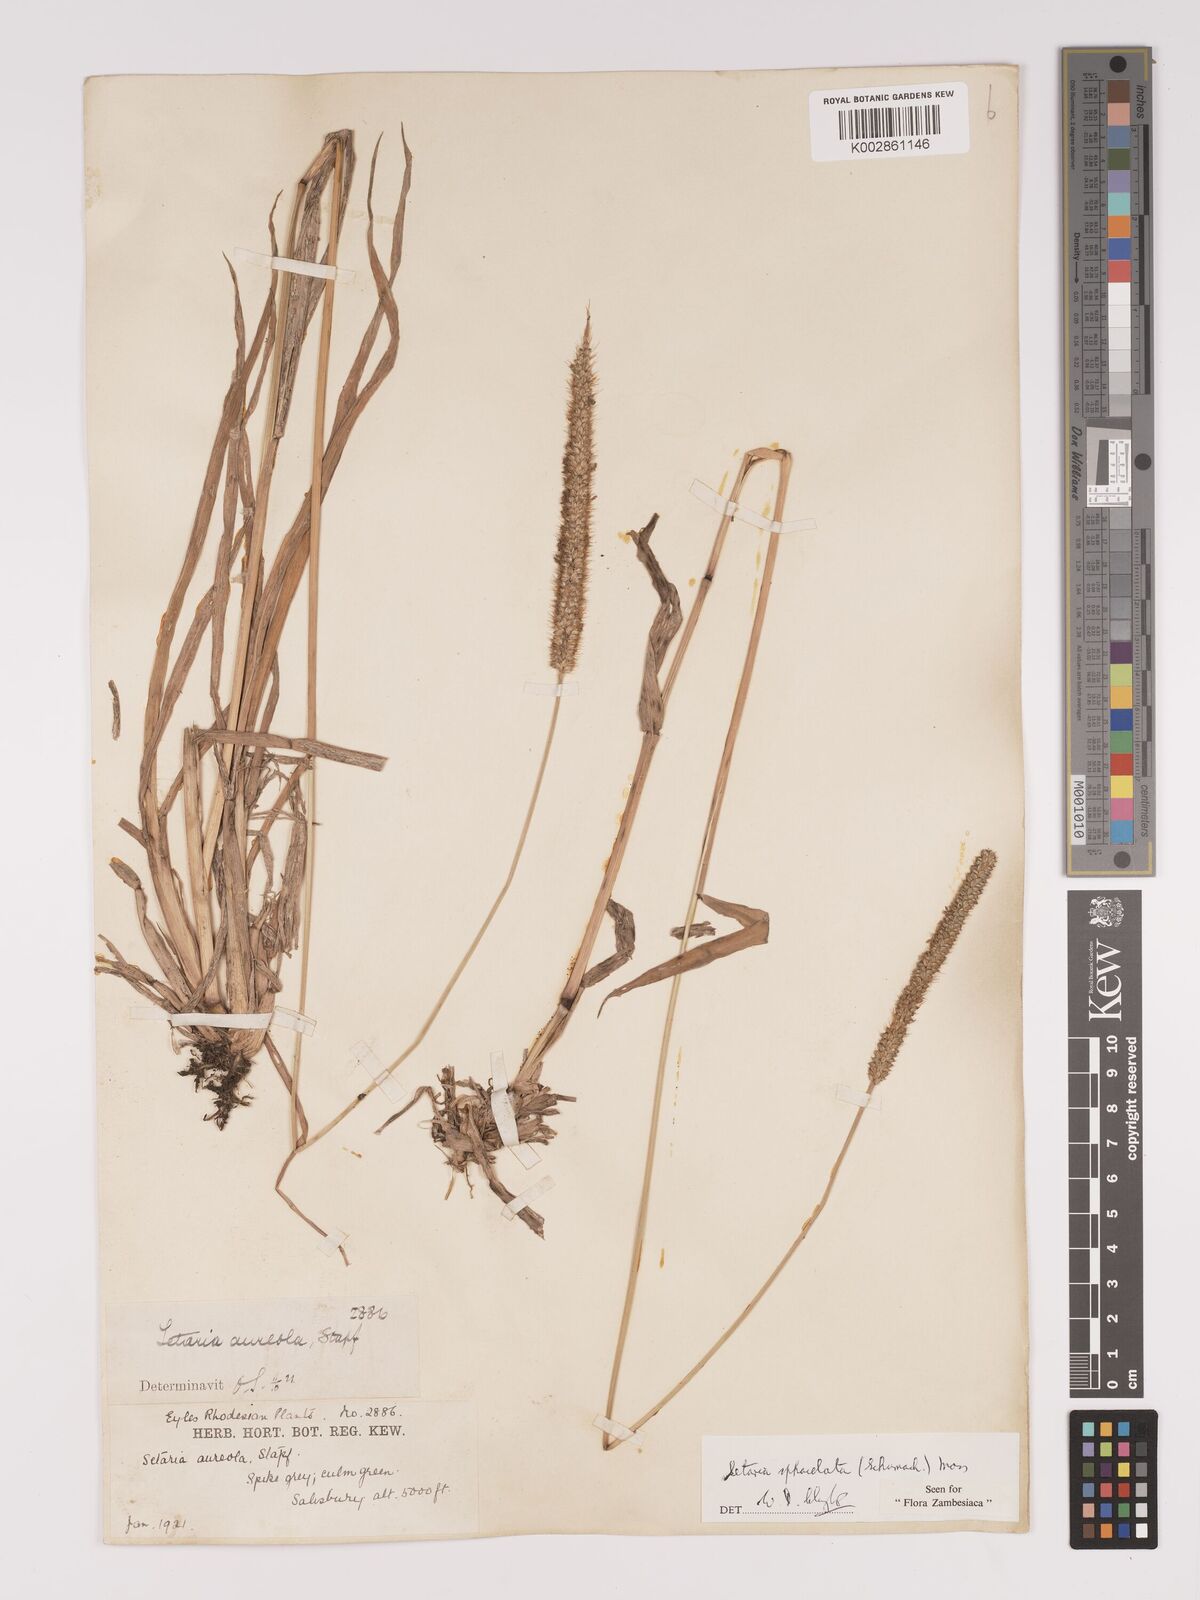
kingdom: Plantae
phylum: Tracheophyta
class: Liliopsida
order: Poales
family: Poaceae
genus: Setaria
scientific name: Setaria sphacelata
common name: African bristlegrass
